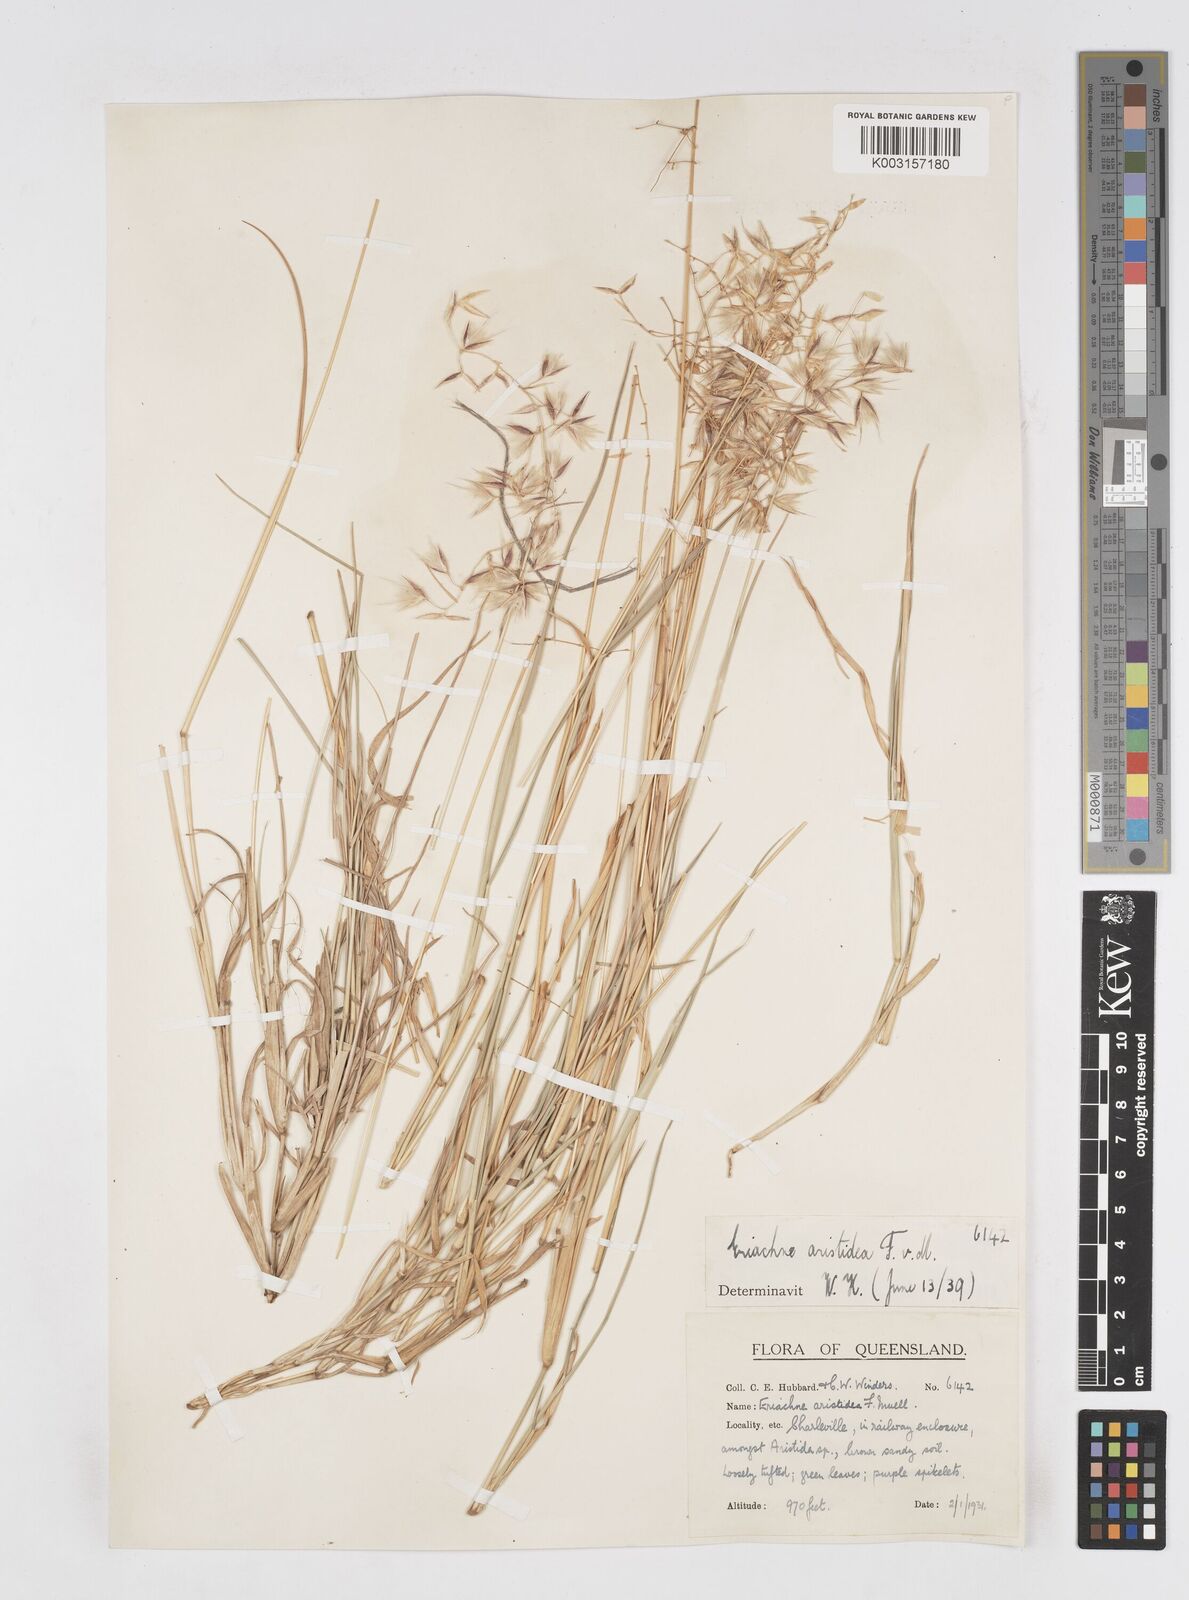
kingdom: Plantae
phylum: Tracheophyta
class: Liliopsida
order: Poales
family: Poaceae
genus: Eriachne
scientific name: Eriachne aristidea
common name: Three-awn wanderrie grass
